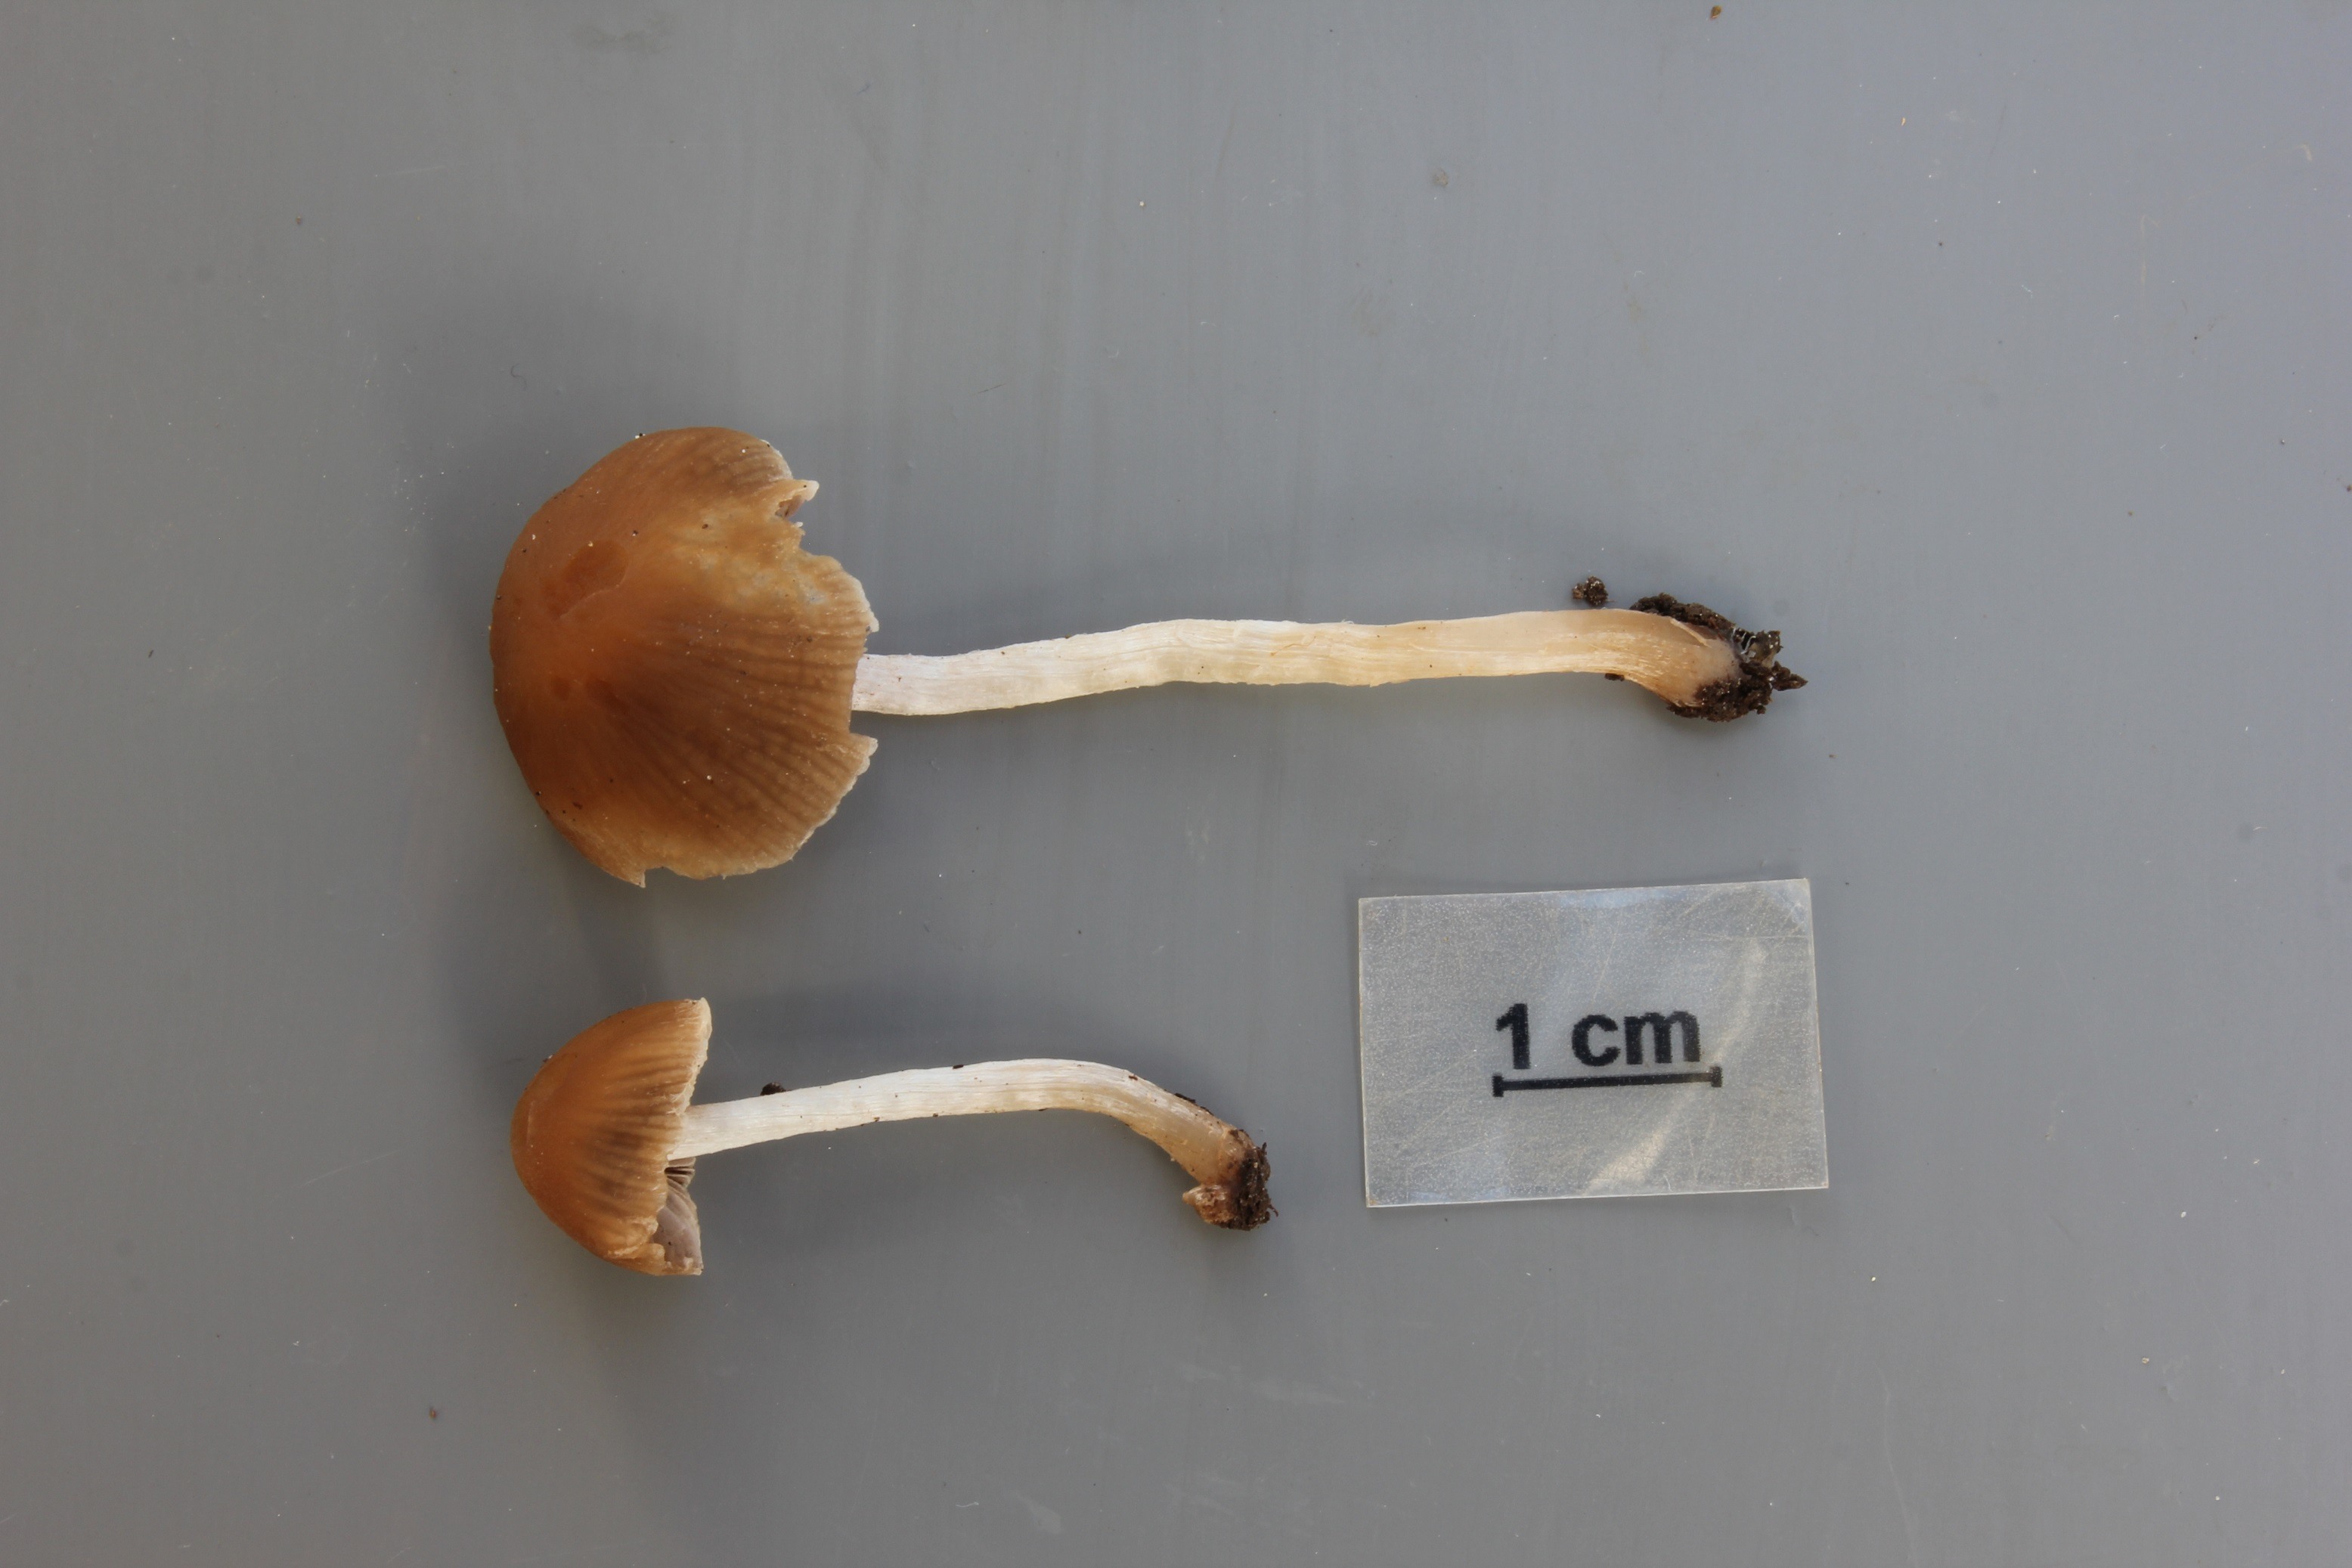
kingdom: Fungi
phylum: Basidiomycota
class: Agaricomycetes
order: Agaricales
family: Psathyrellaceae
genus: Psathyrella
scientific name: Psathyrella lutensis
